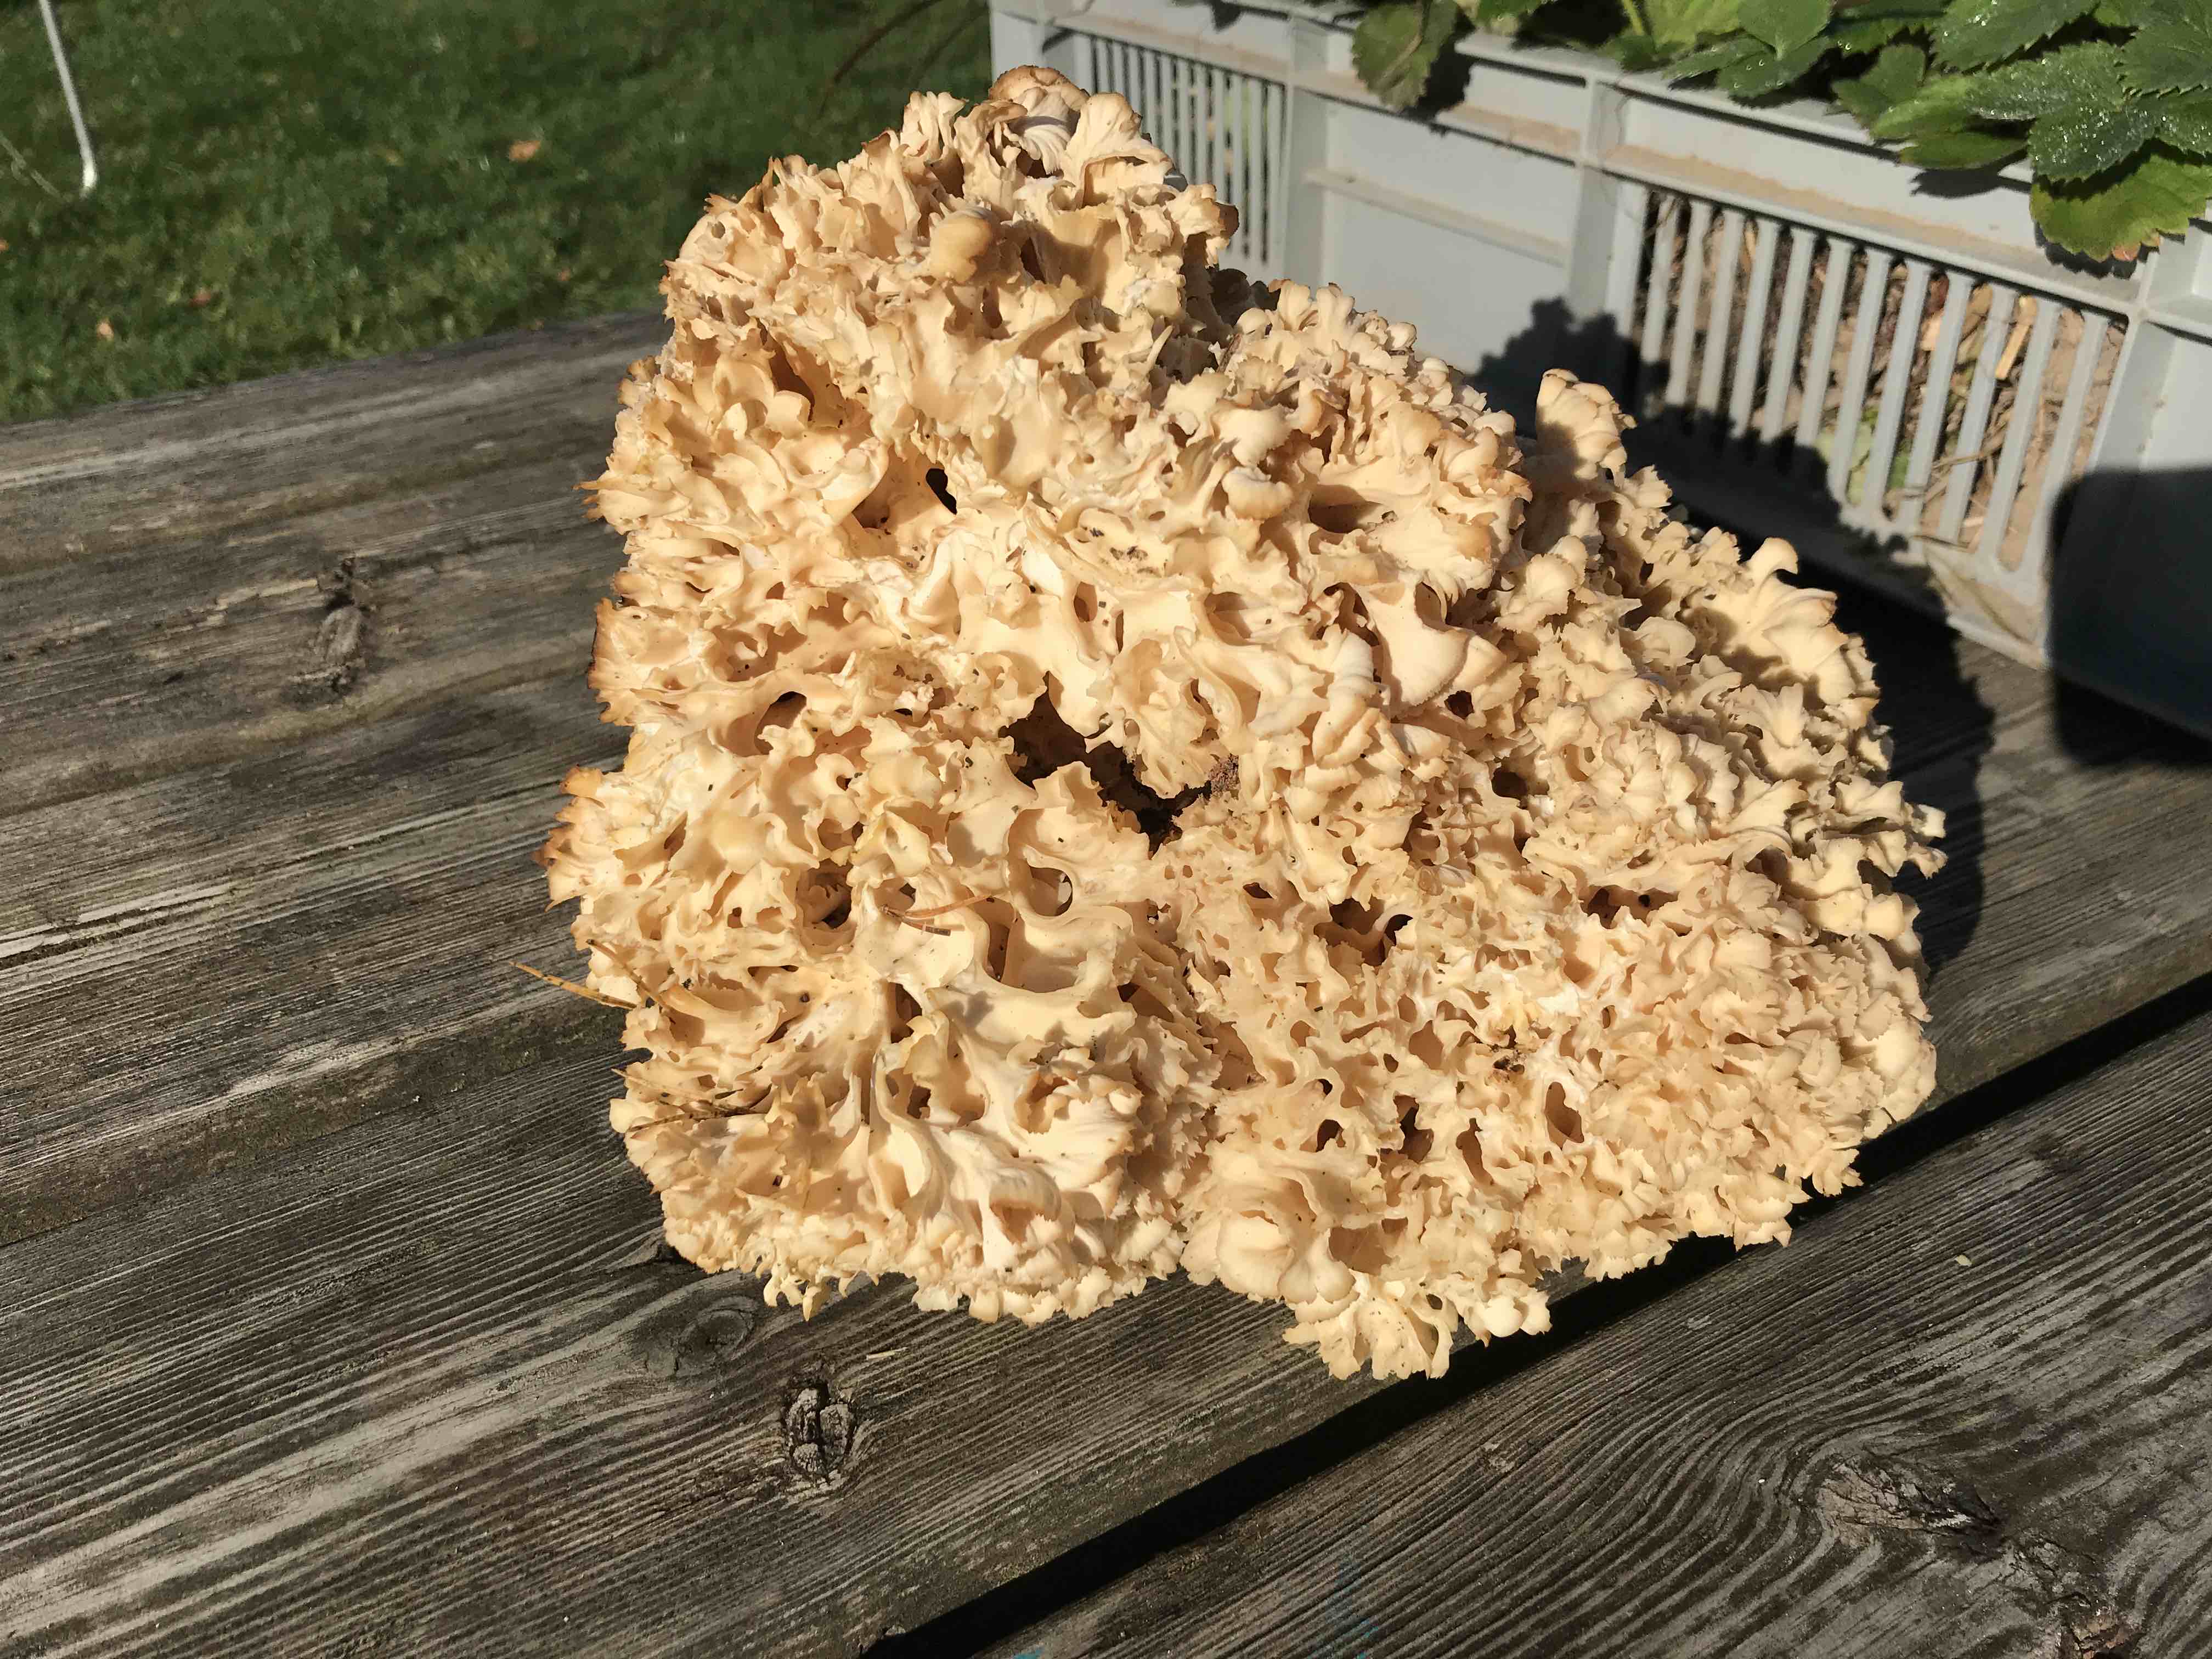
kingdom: Fungi
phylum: Basidiomycota
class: Agaricomycetes
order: Polyporales
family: Sparassidaceae
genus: Sparassis
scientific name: Sparassis crispa
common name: kruset blomkålssvamp
